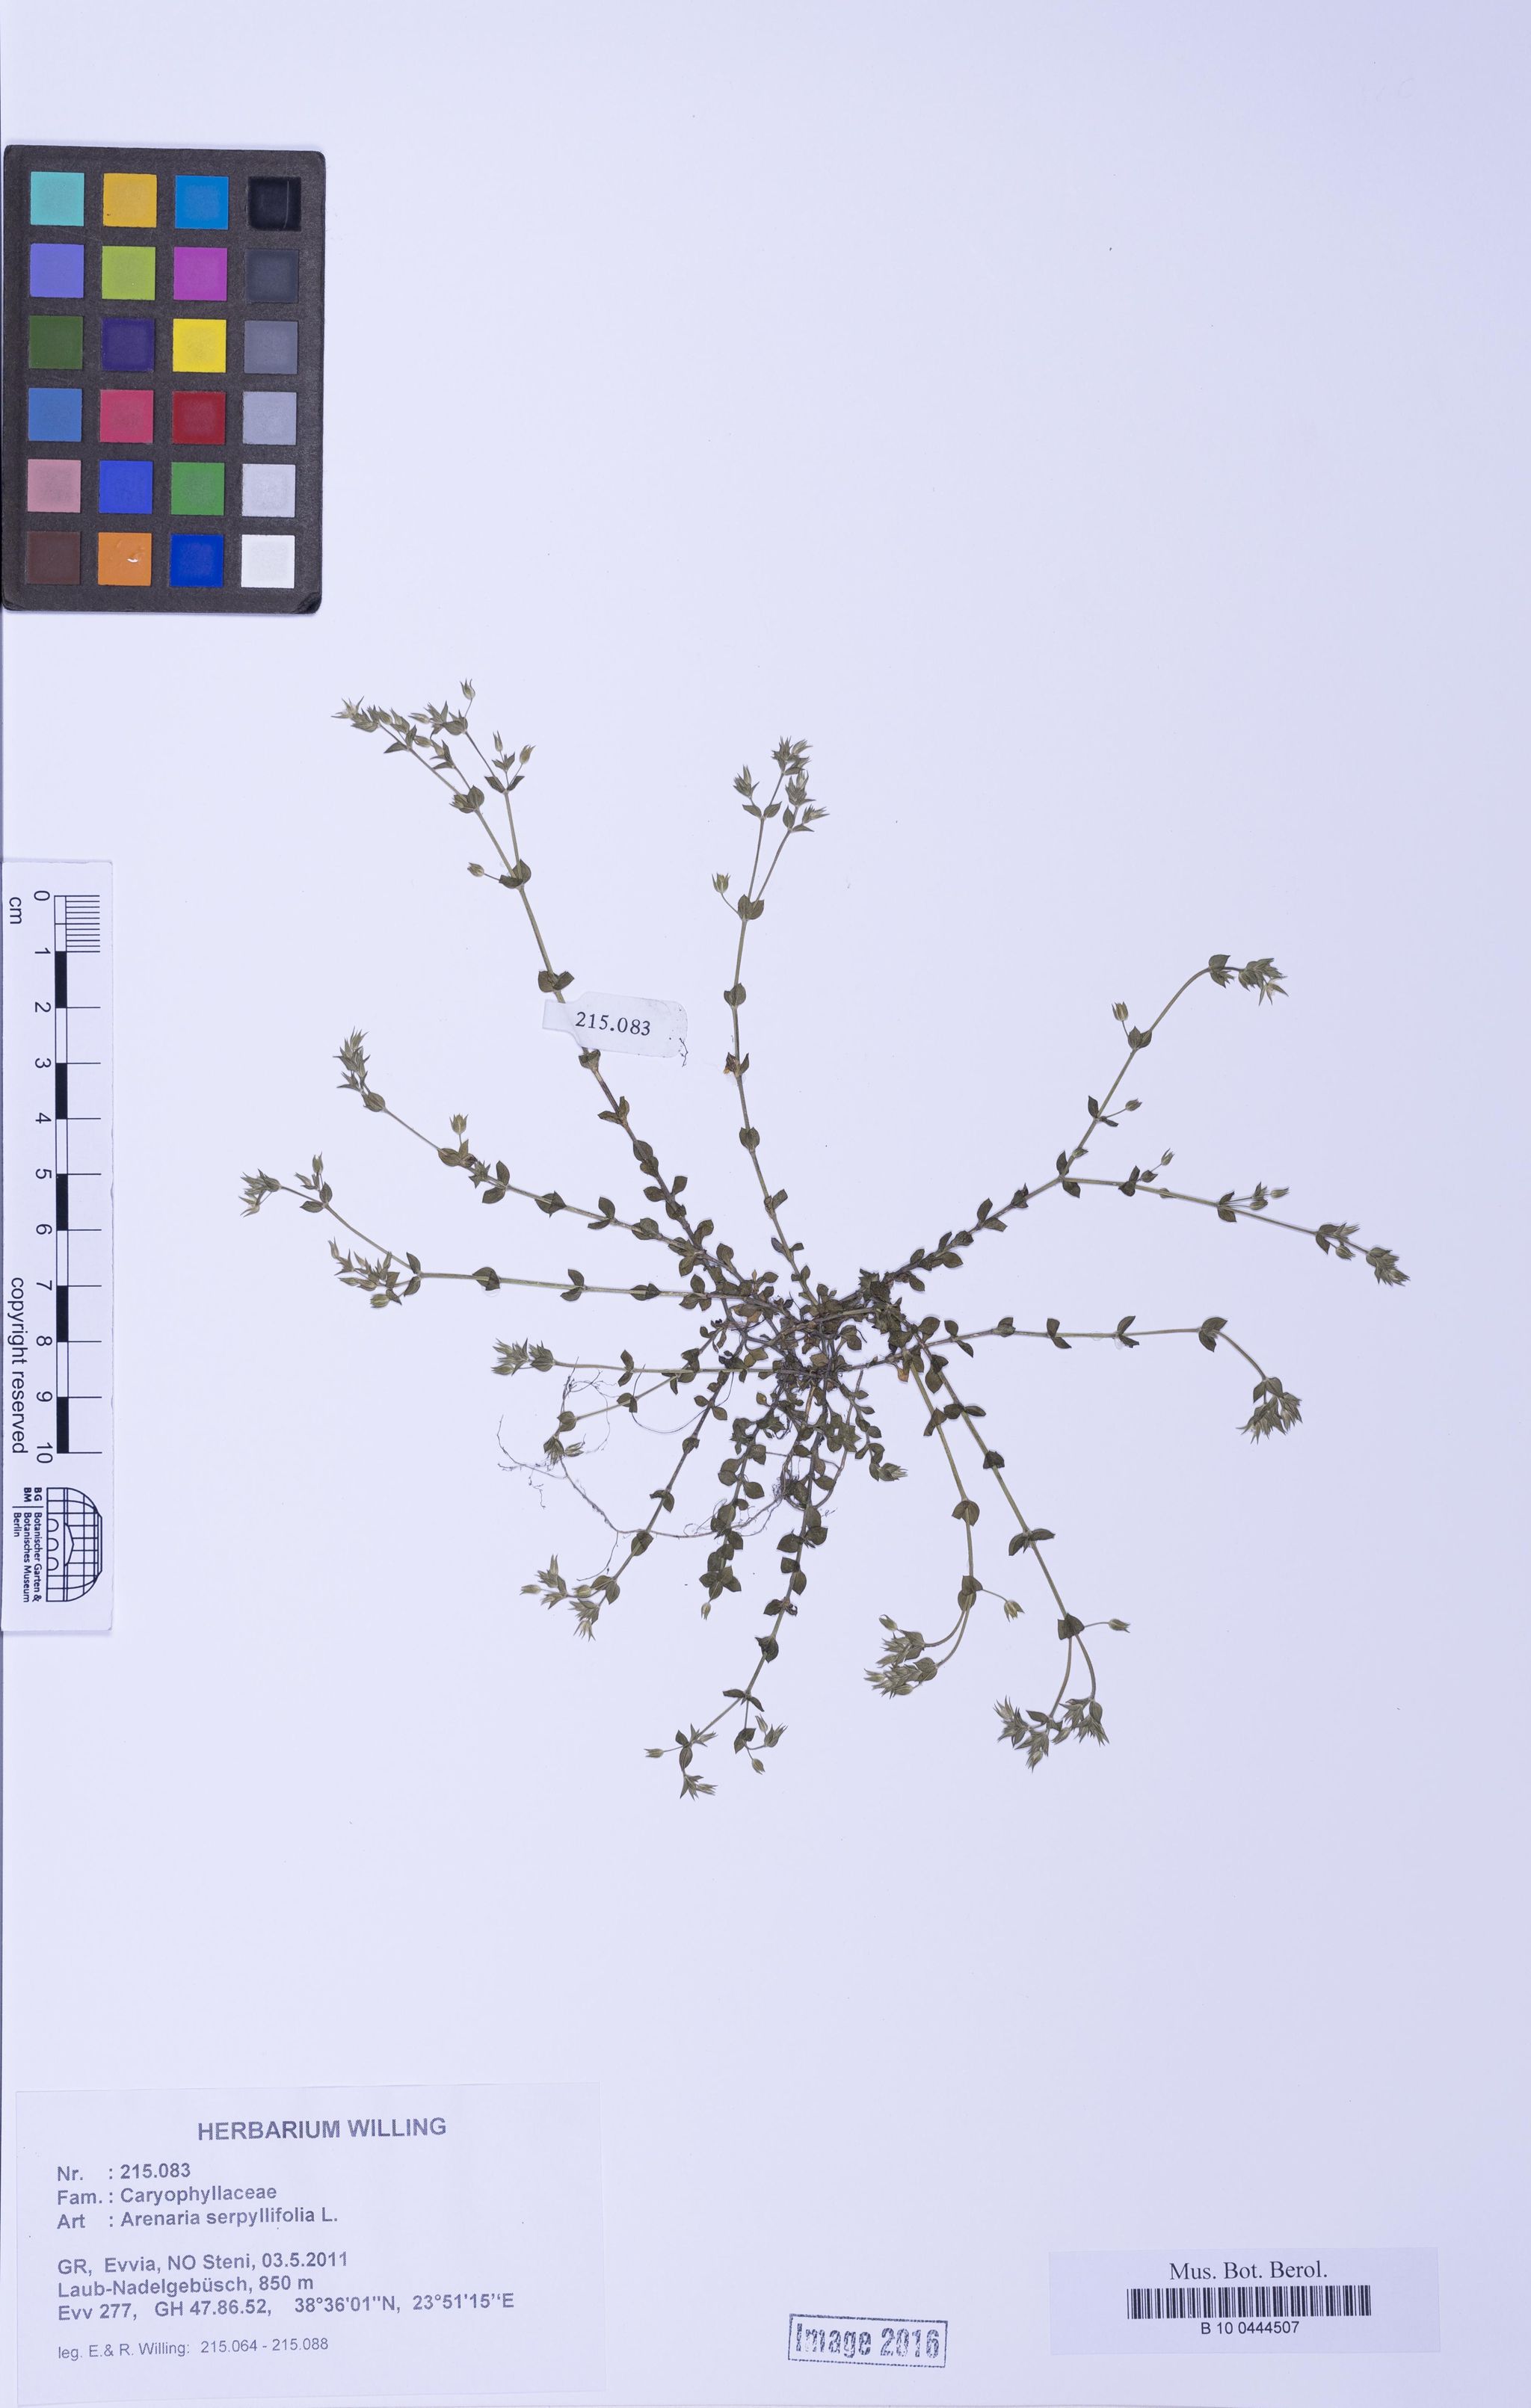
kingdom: Plantae
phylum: Tracheophyta
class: Magnoliopsida
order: Caryophyllales
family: Caryophyllaceae
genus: Arenaria
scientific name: Arenaria serpyllifolia
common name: Thyme-leaved sandwort
